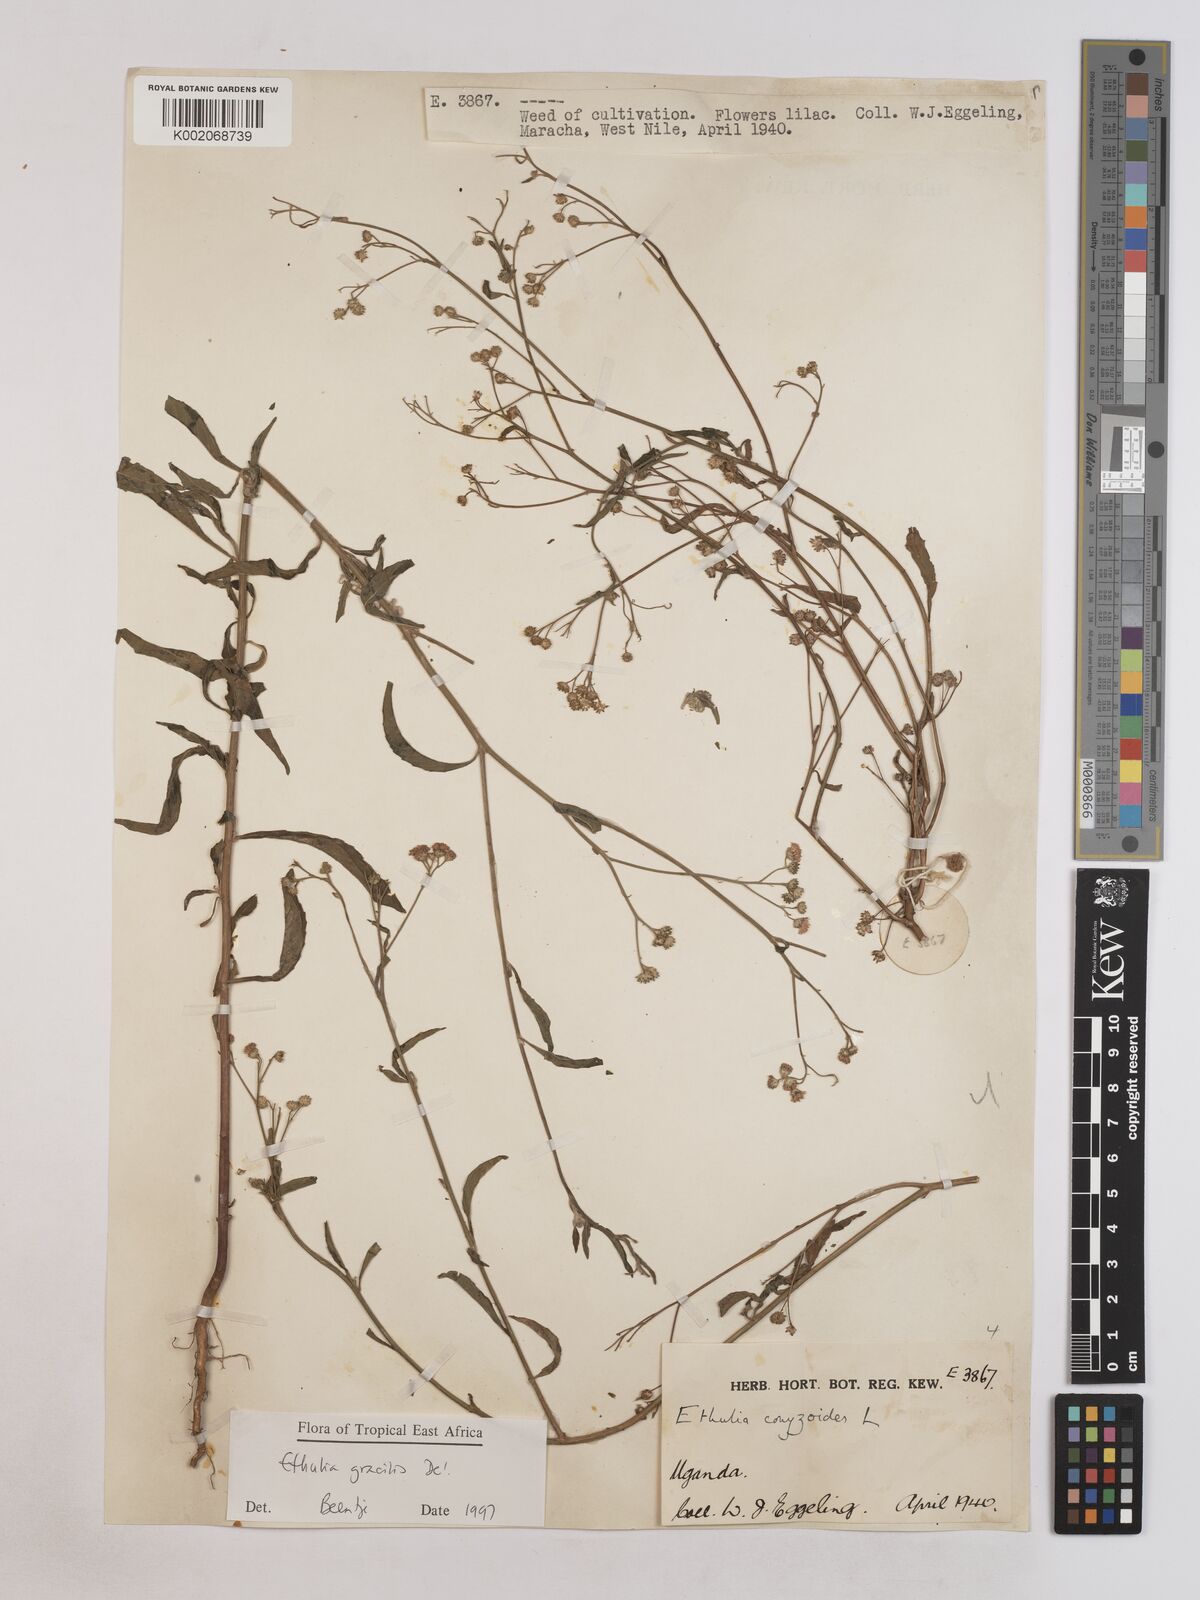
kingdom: Plantae
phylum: Tracheophyta
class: Magnoliopsida
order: Asterales
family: Asteraceae
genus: Ethulia
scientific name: Ethulia gracilis
